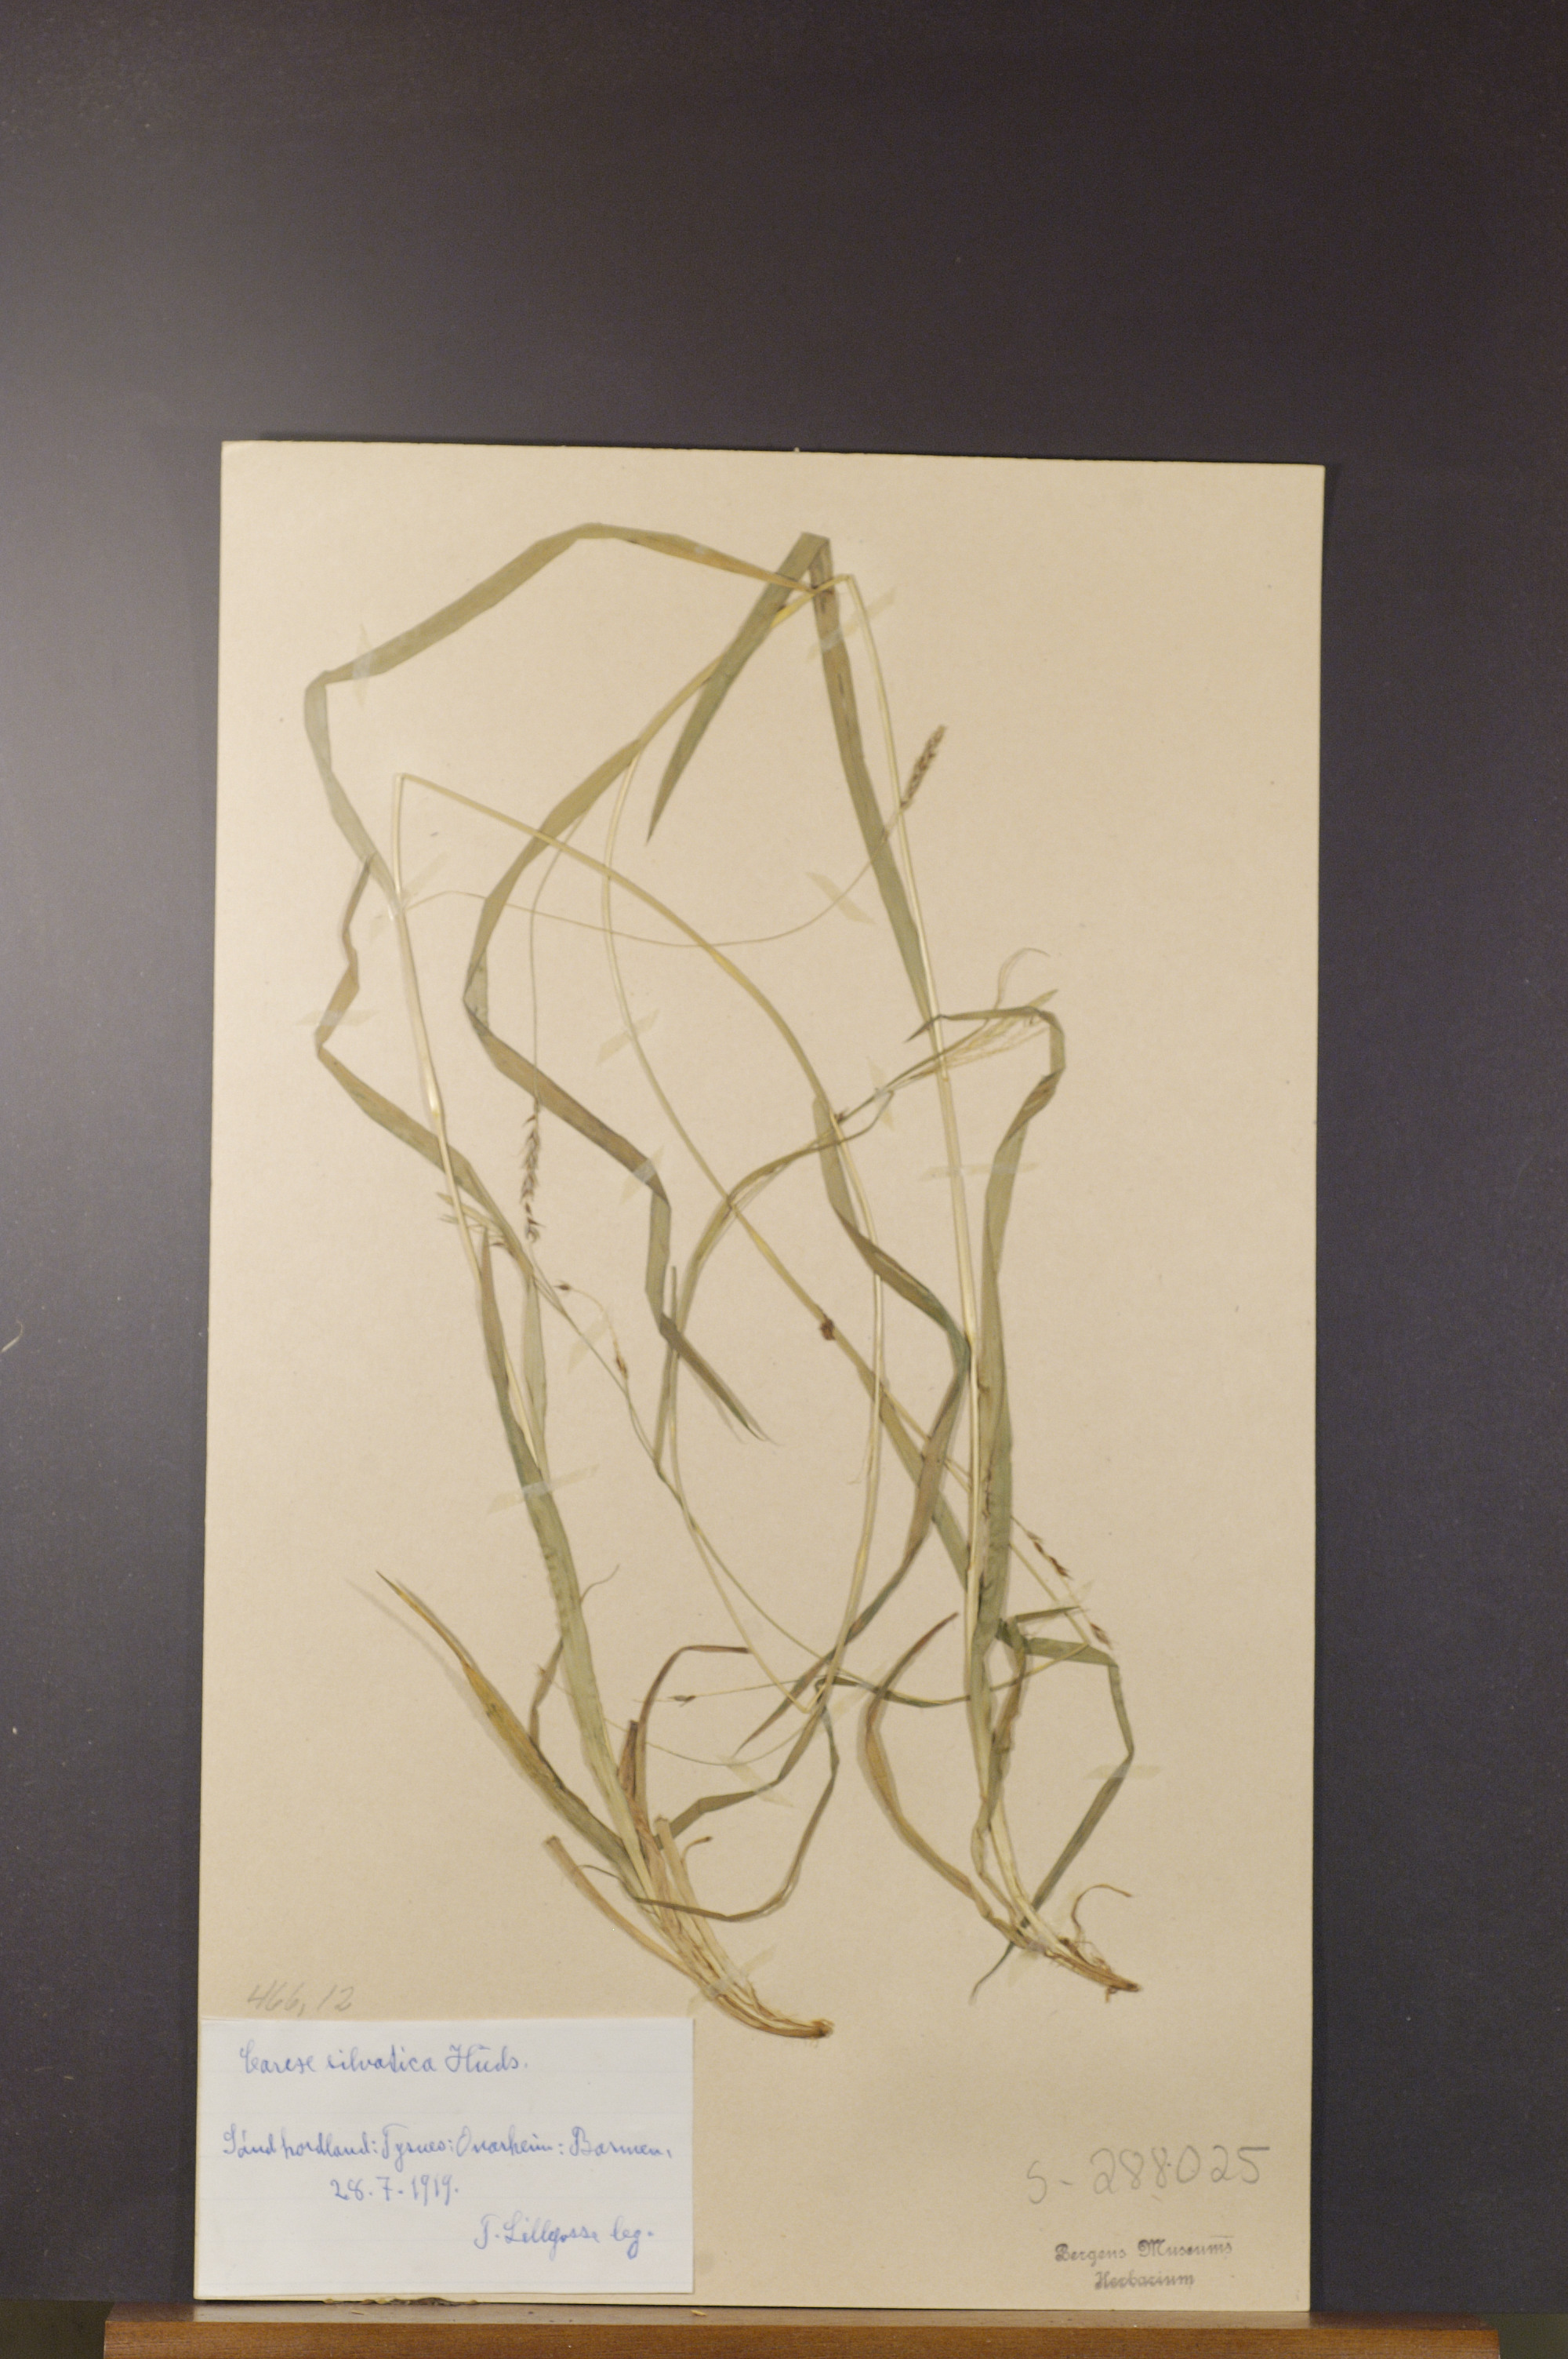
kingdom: Plantae
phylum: Tracheophyta
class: Liliopsida
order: Poales
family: Cyperaceae
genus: Carex
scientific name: Carex sylvatica
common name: Wood-sedge
